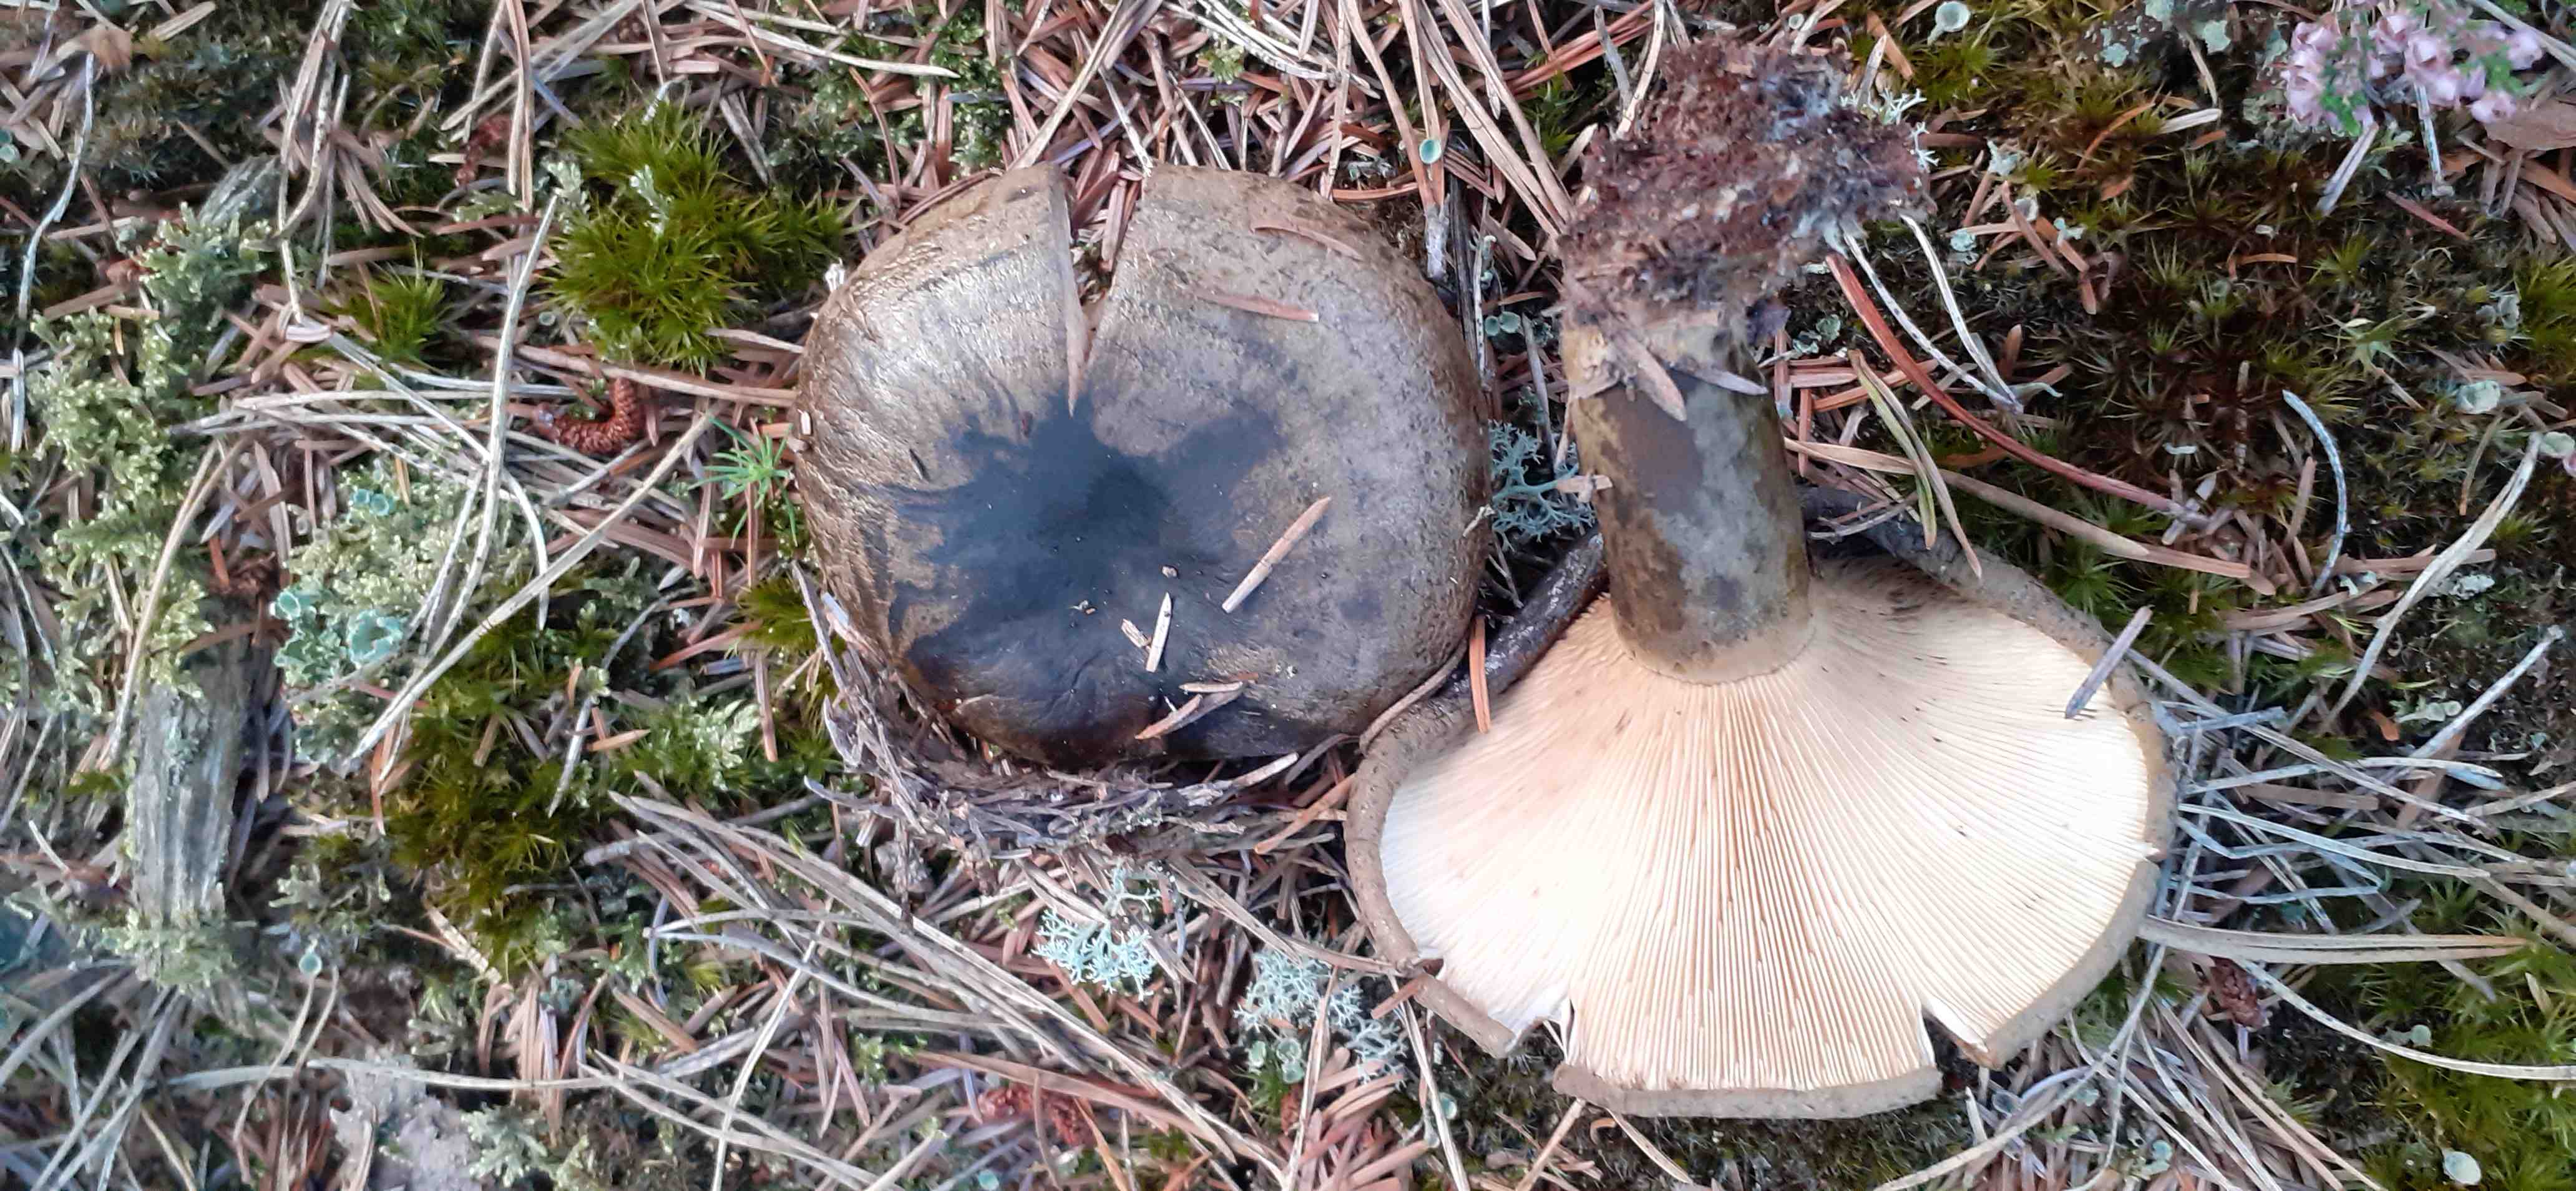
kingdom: Fungi
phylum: Basidiomycota
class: Agaricomycetes
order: Russulales
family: Russulaceae
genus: Lactarius
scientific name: Lactarius necator
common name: manddraber-mælkehat
